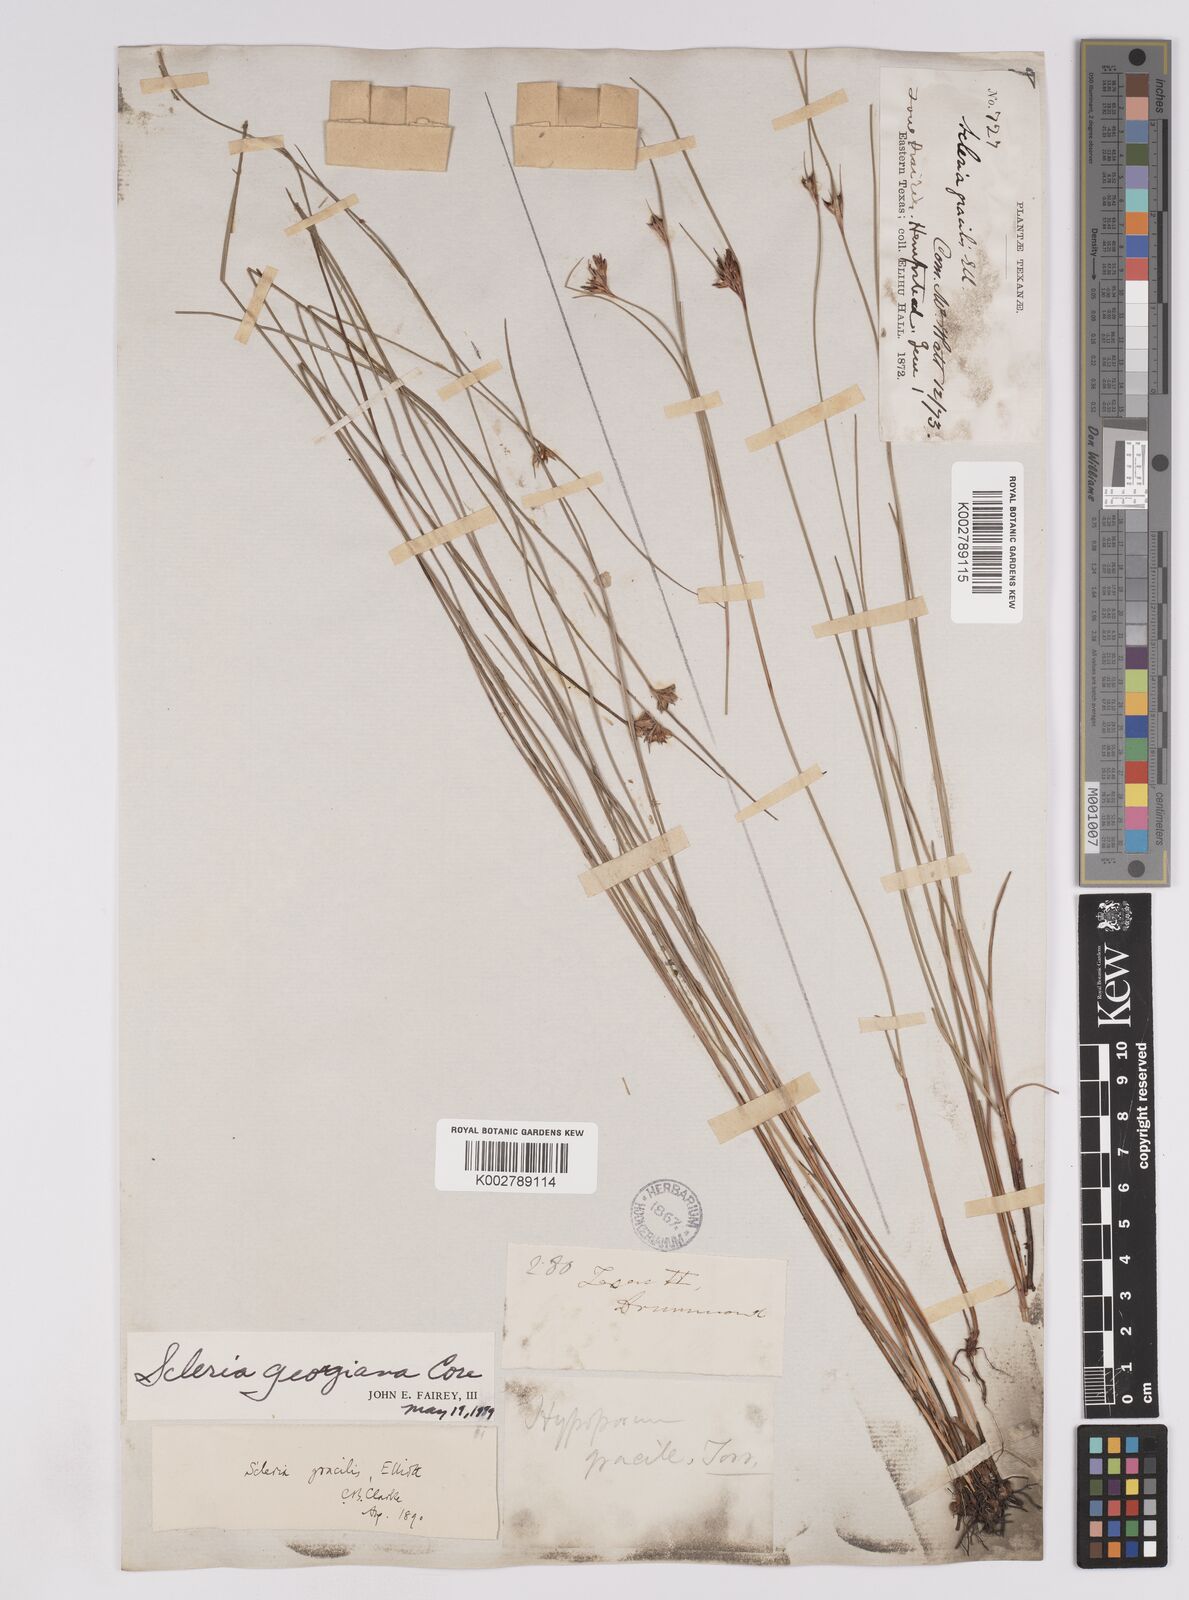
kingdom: Plantae
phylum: Tracheophyta
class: Liliopsida
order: Poales
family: Cyperaceae
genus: Scleria
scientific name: Scleria georgiana
